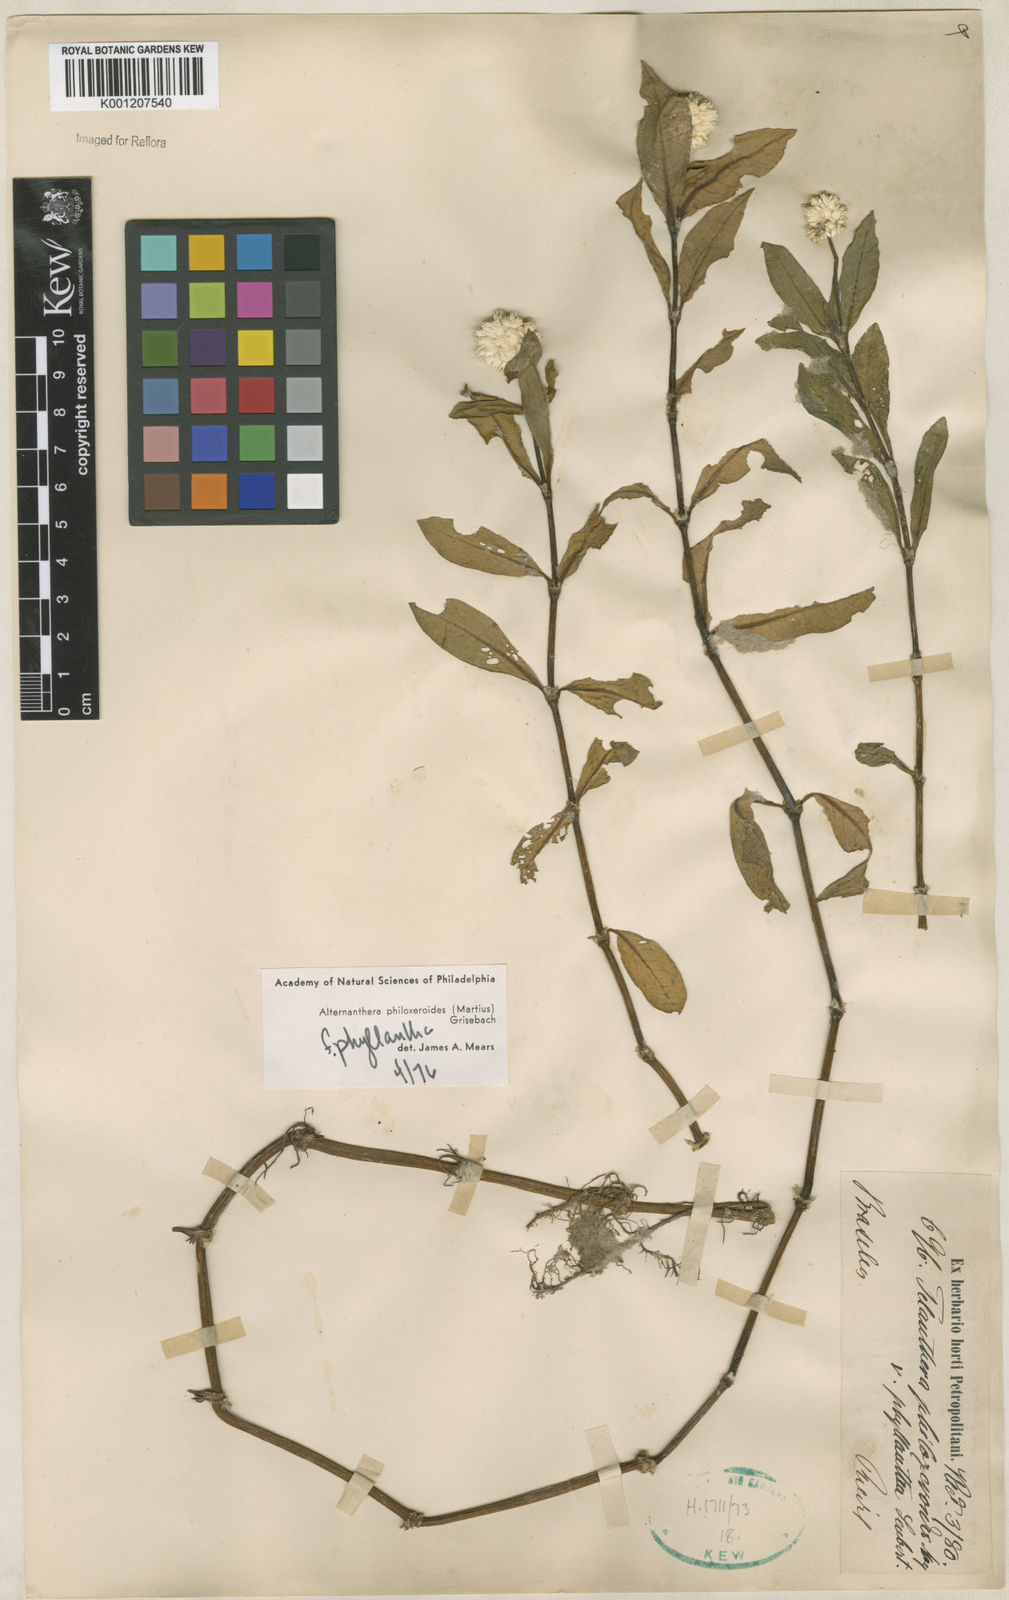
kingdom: Plantae
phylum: Tracheophyta
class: Magnoliopsida
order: Caryophyllales
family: Amaranthaceae
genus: Alternanthera
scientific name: Alternanthera philoxeroides
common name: Alligatorweed
